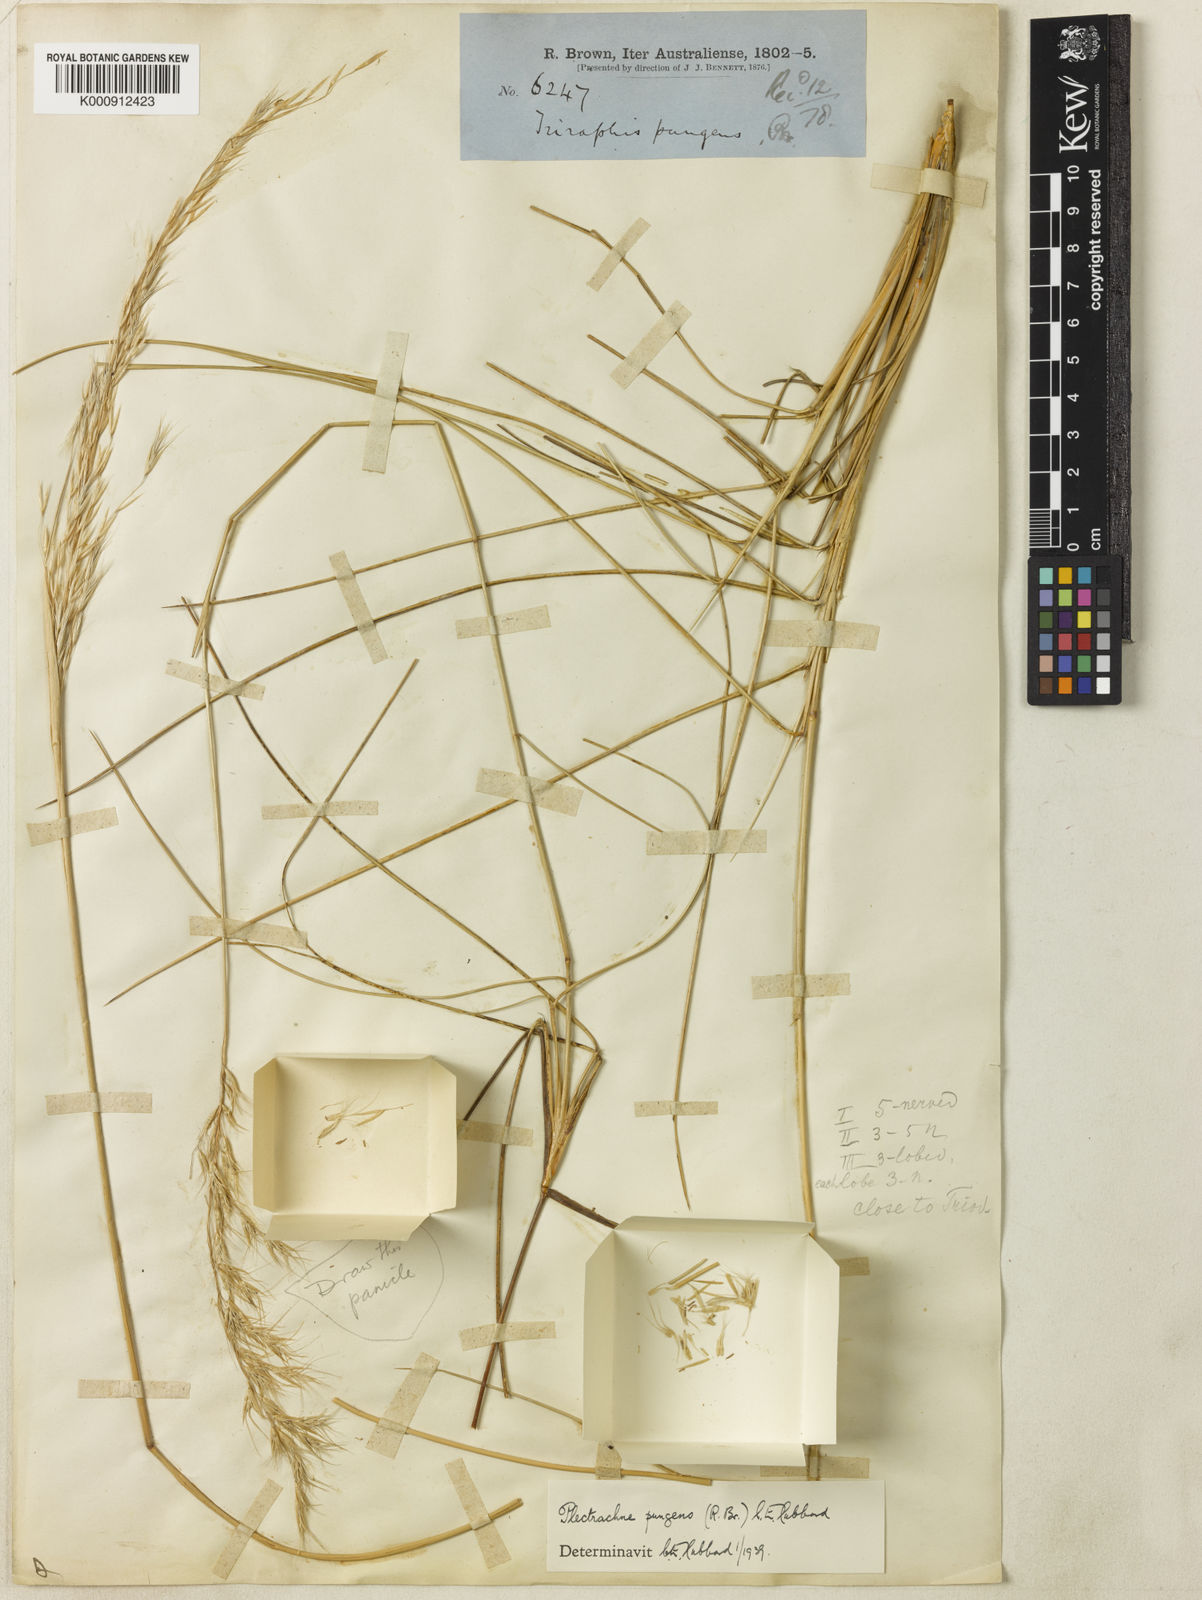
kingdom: Plantae
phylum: Tracheophyta
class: Liliopsida
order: Poales
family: Poaceae
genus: Triodia
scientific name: Triodia bitextura
